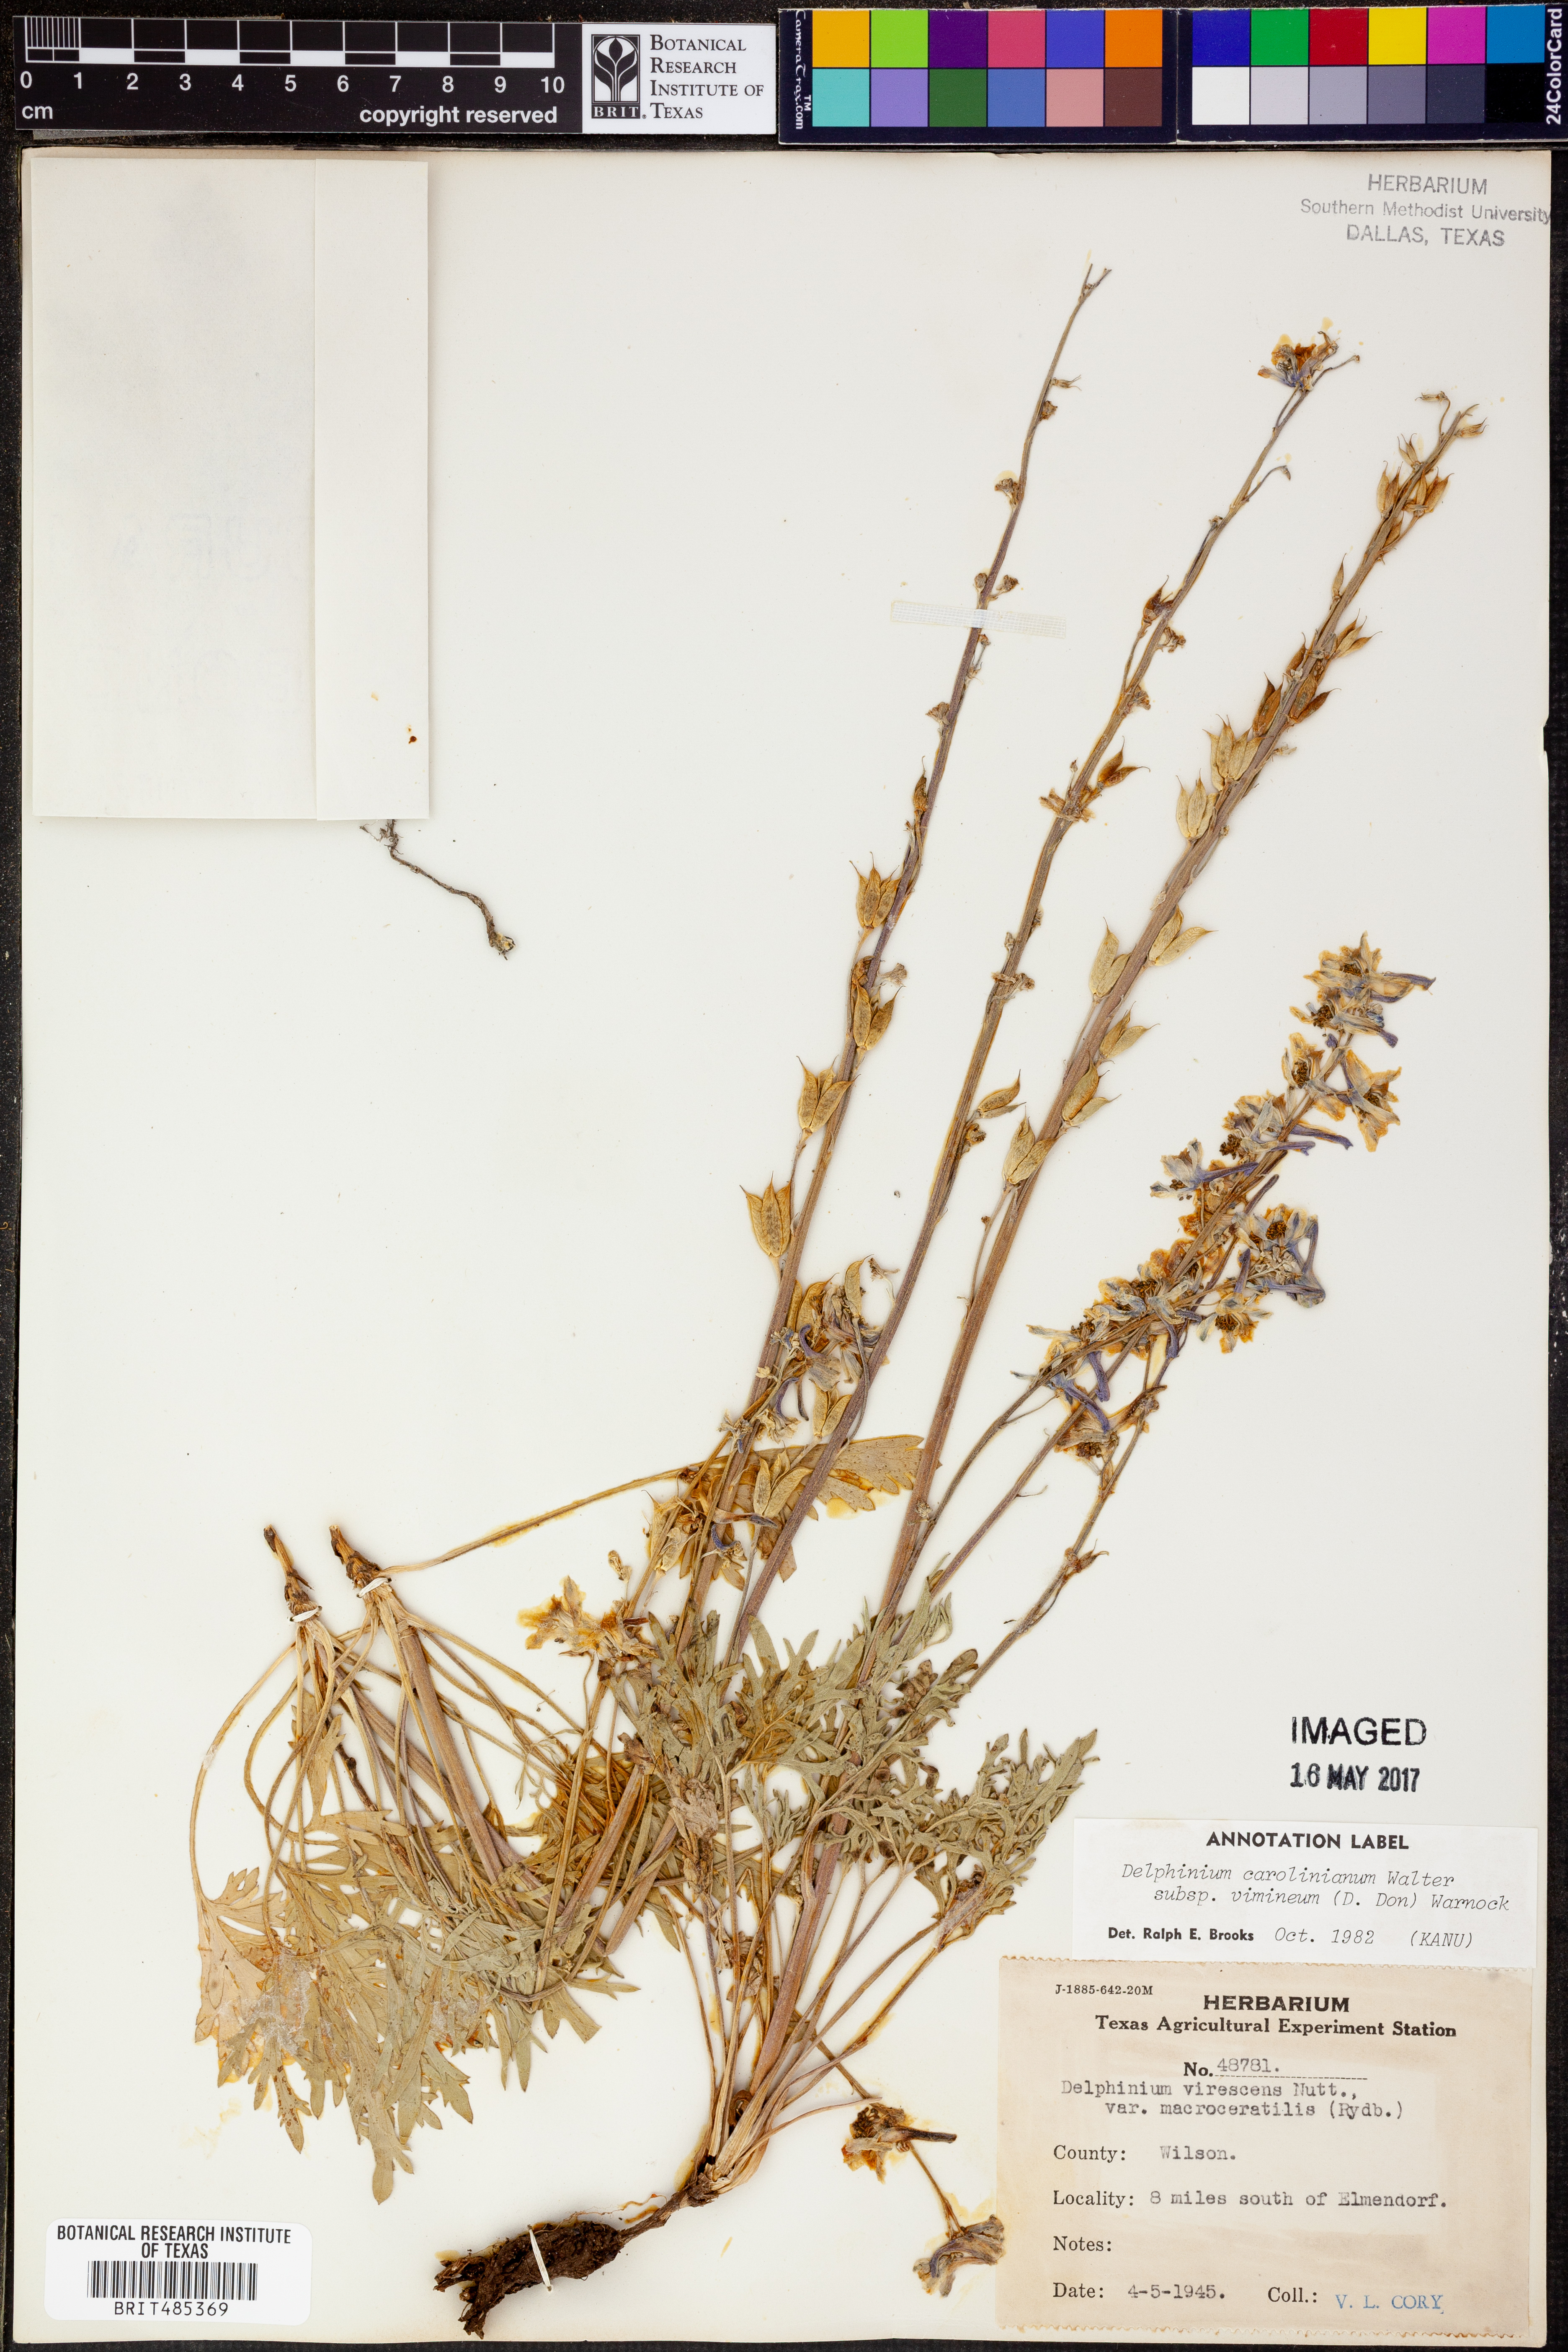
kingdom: Plantae
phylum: Tracheophyta
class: Magnoliopsida
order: Ranunculales
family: Ranunculaceae
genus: Delphinium
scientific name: Delphinium carolinianum
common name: Carolina larkspur
